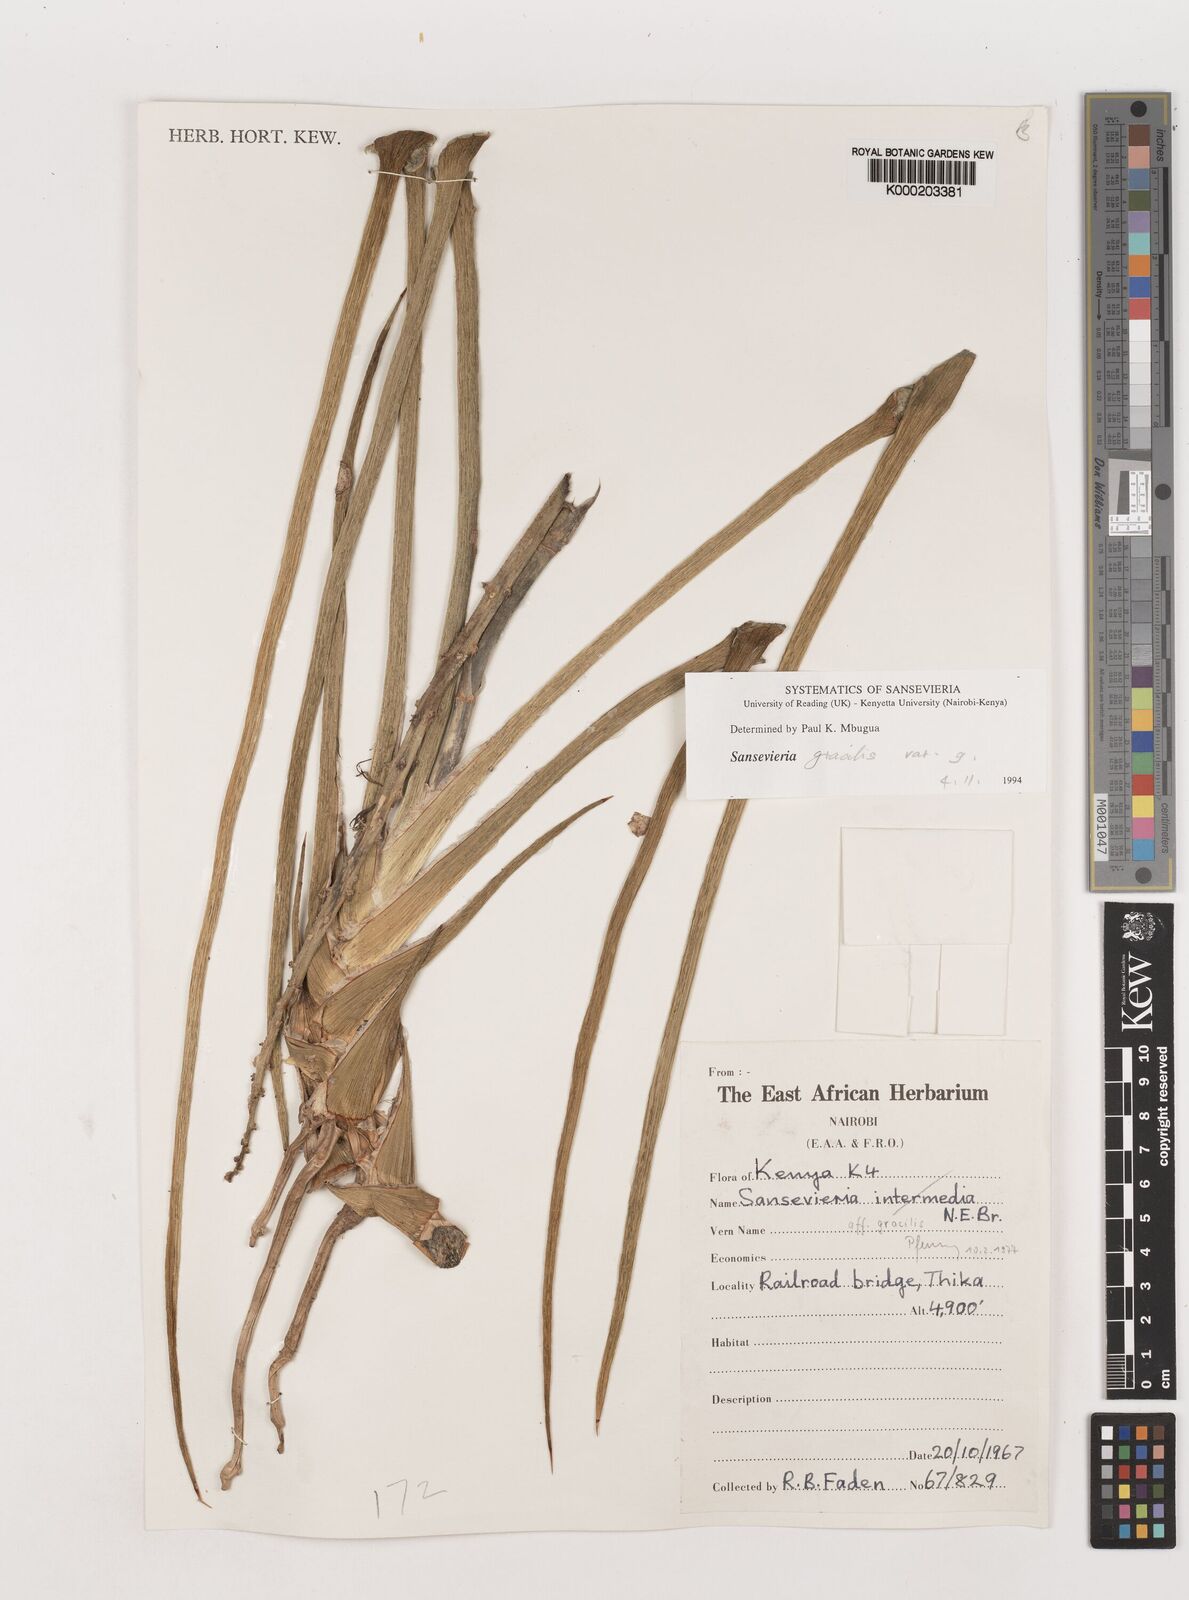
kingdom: Plantae
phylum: Tracheophyta
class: Liliopsida
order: Asparagales
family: Asparagaceae
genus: Dracaena
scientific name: Dracaena serpenta
